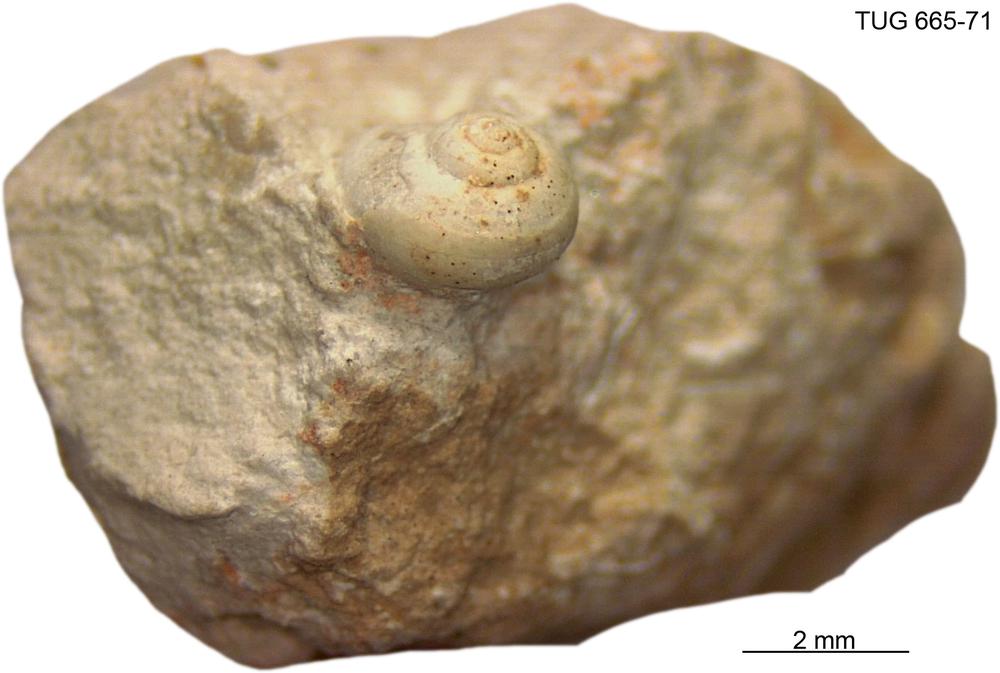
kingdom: Animalia
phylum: Mollusca
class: Gastropoda
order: Pleurotomariida
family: Gosseletinidae
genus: Cataschisma
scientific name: Cataschisma Globispira nitida
